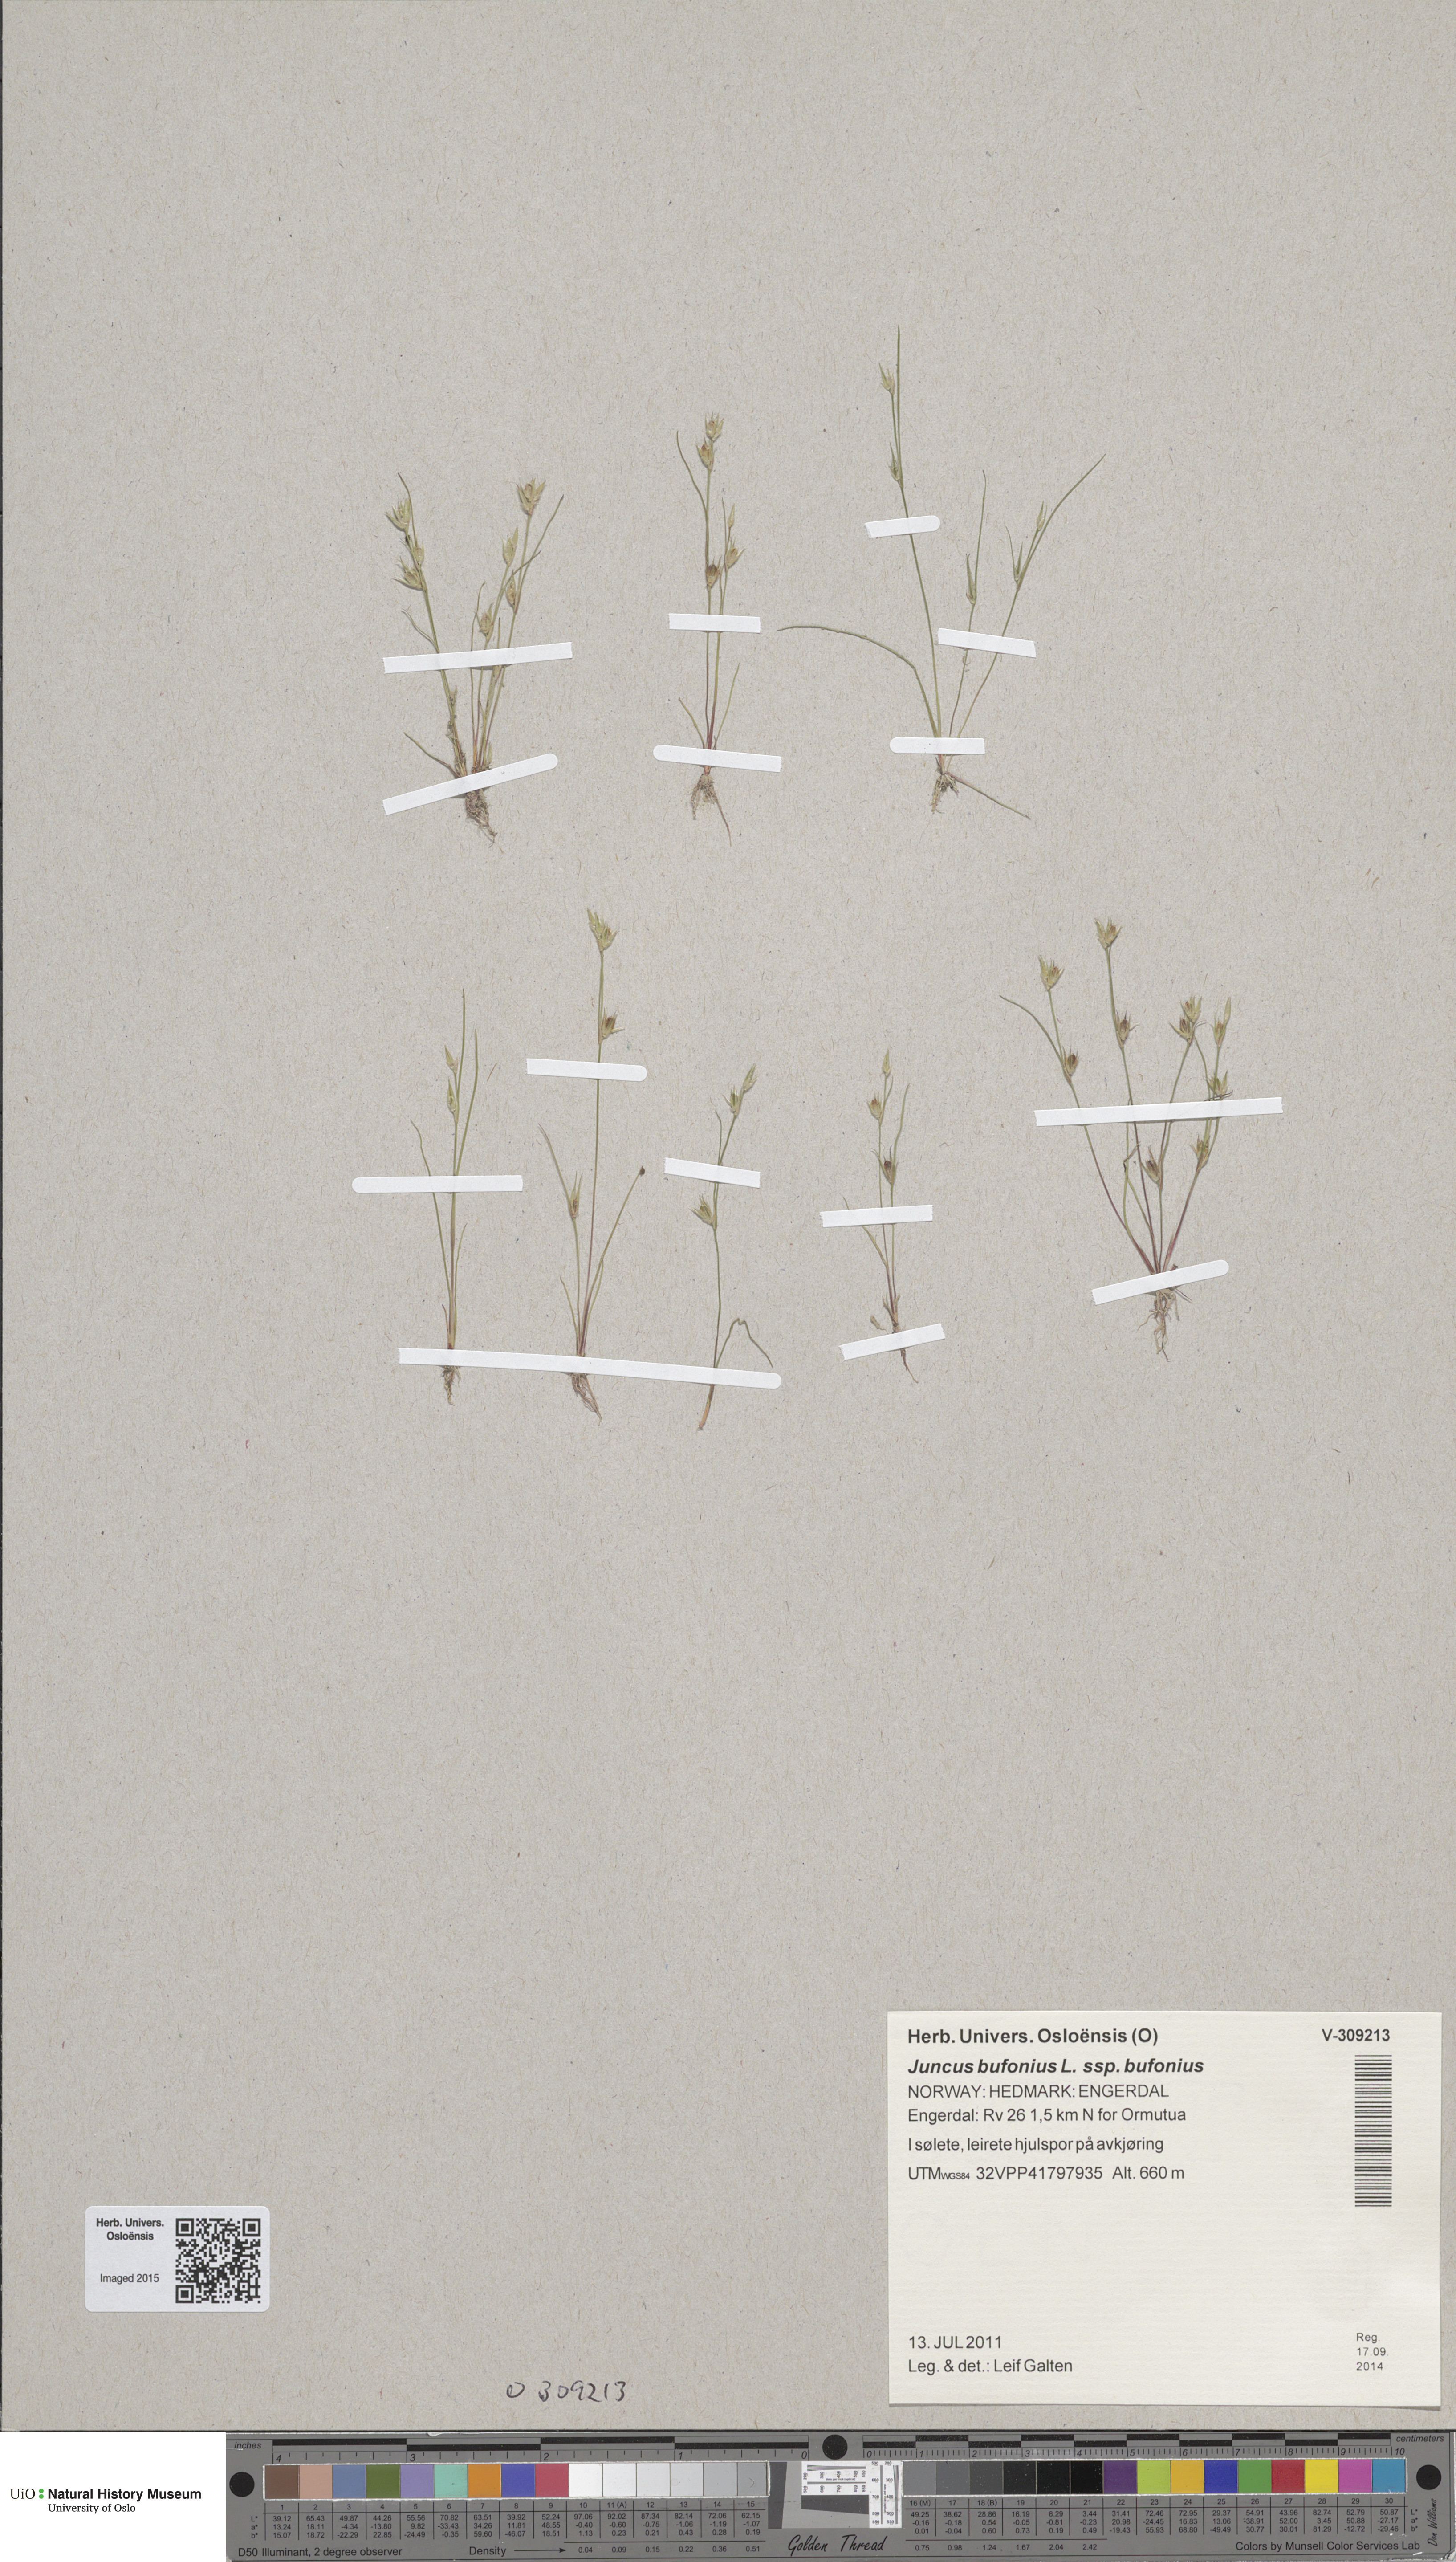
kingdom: Plantae
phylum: Tracheophyta
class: Liliopsida
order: Poales
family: Juncaceae
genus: Juncus
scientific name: Juncus bufonius
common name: Toad rush
